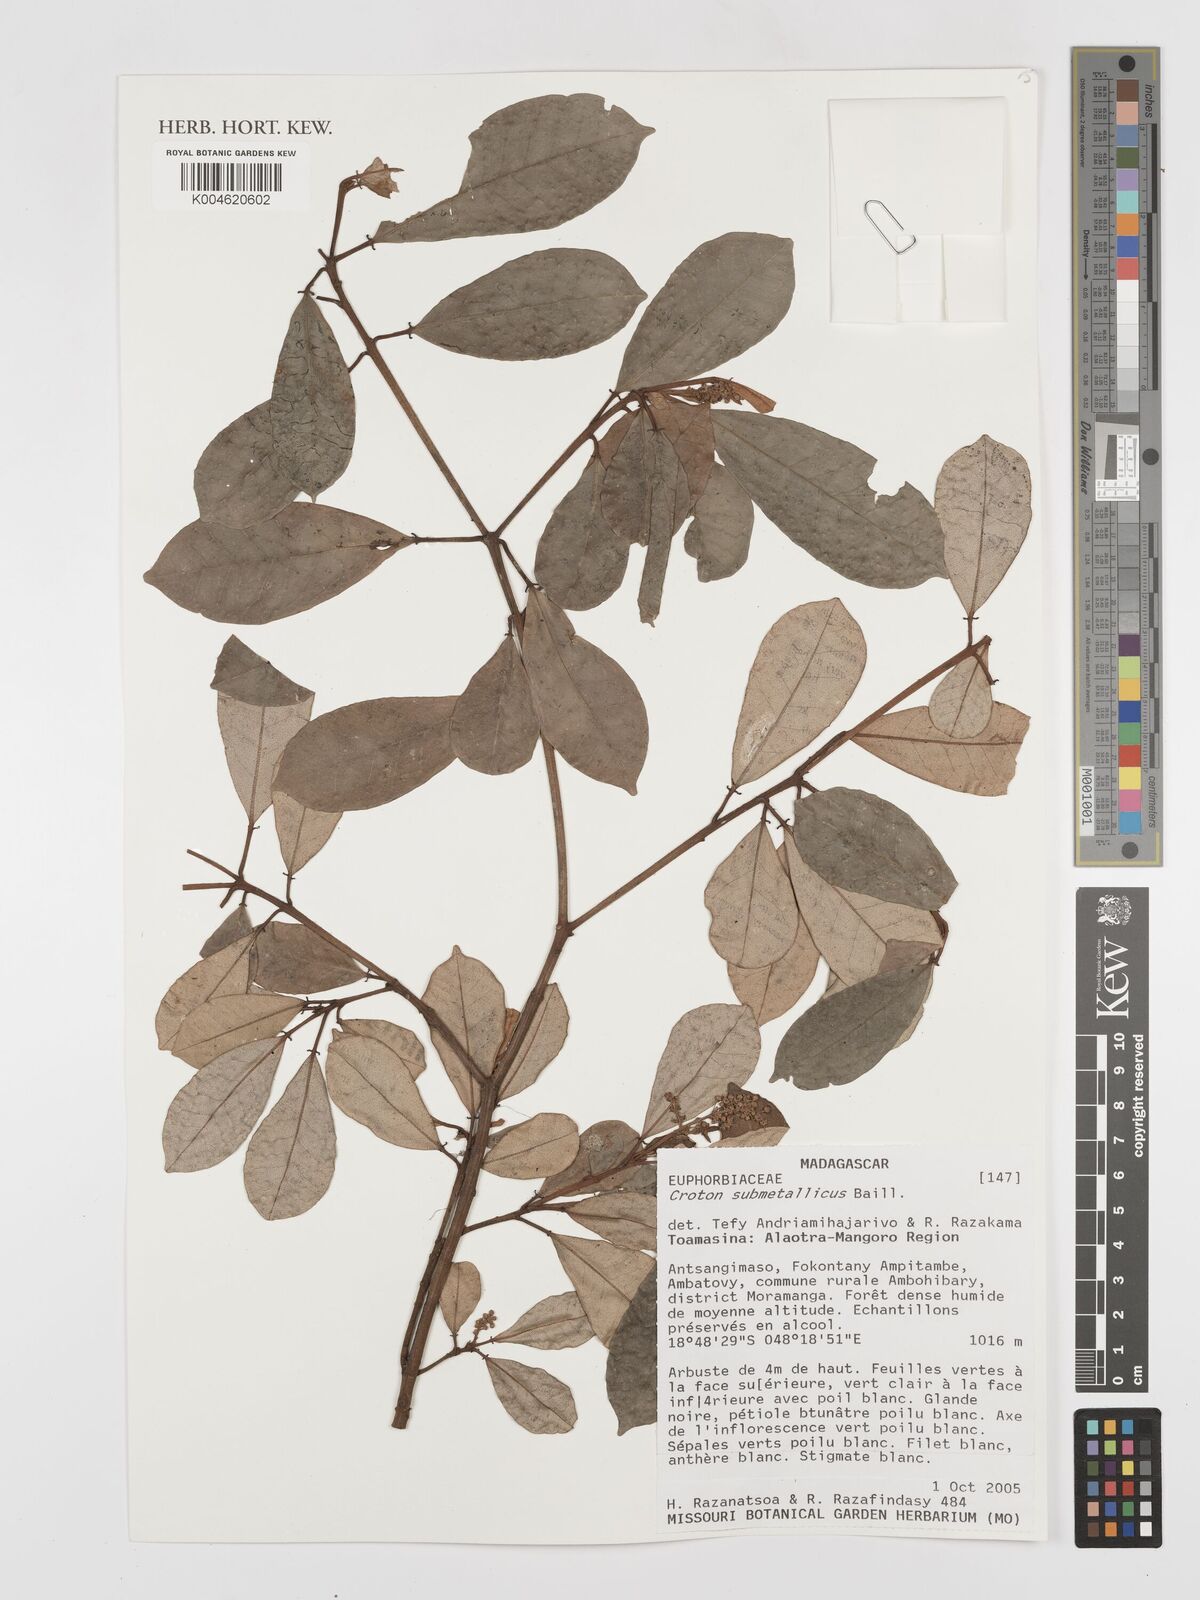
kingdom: Plantae
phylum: Tracheophyta
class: Magnoliopsida
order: Malpighiales
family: Euphorbiaceae
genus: Croton
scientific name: Croton submetallicus
